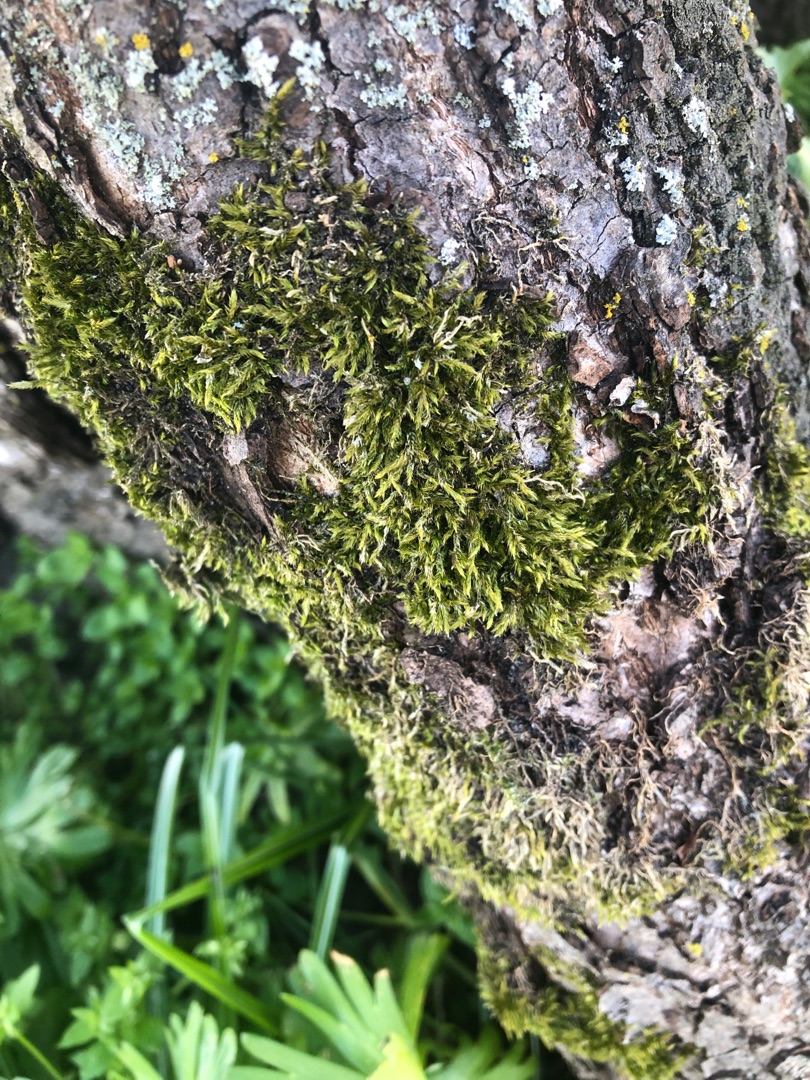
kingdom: Plantae
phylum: Bryophyta
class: Bryopsida
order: Hypnales
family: Hypnaceae
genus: Hypnum
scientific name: Hypnum
